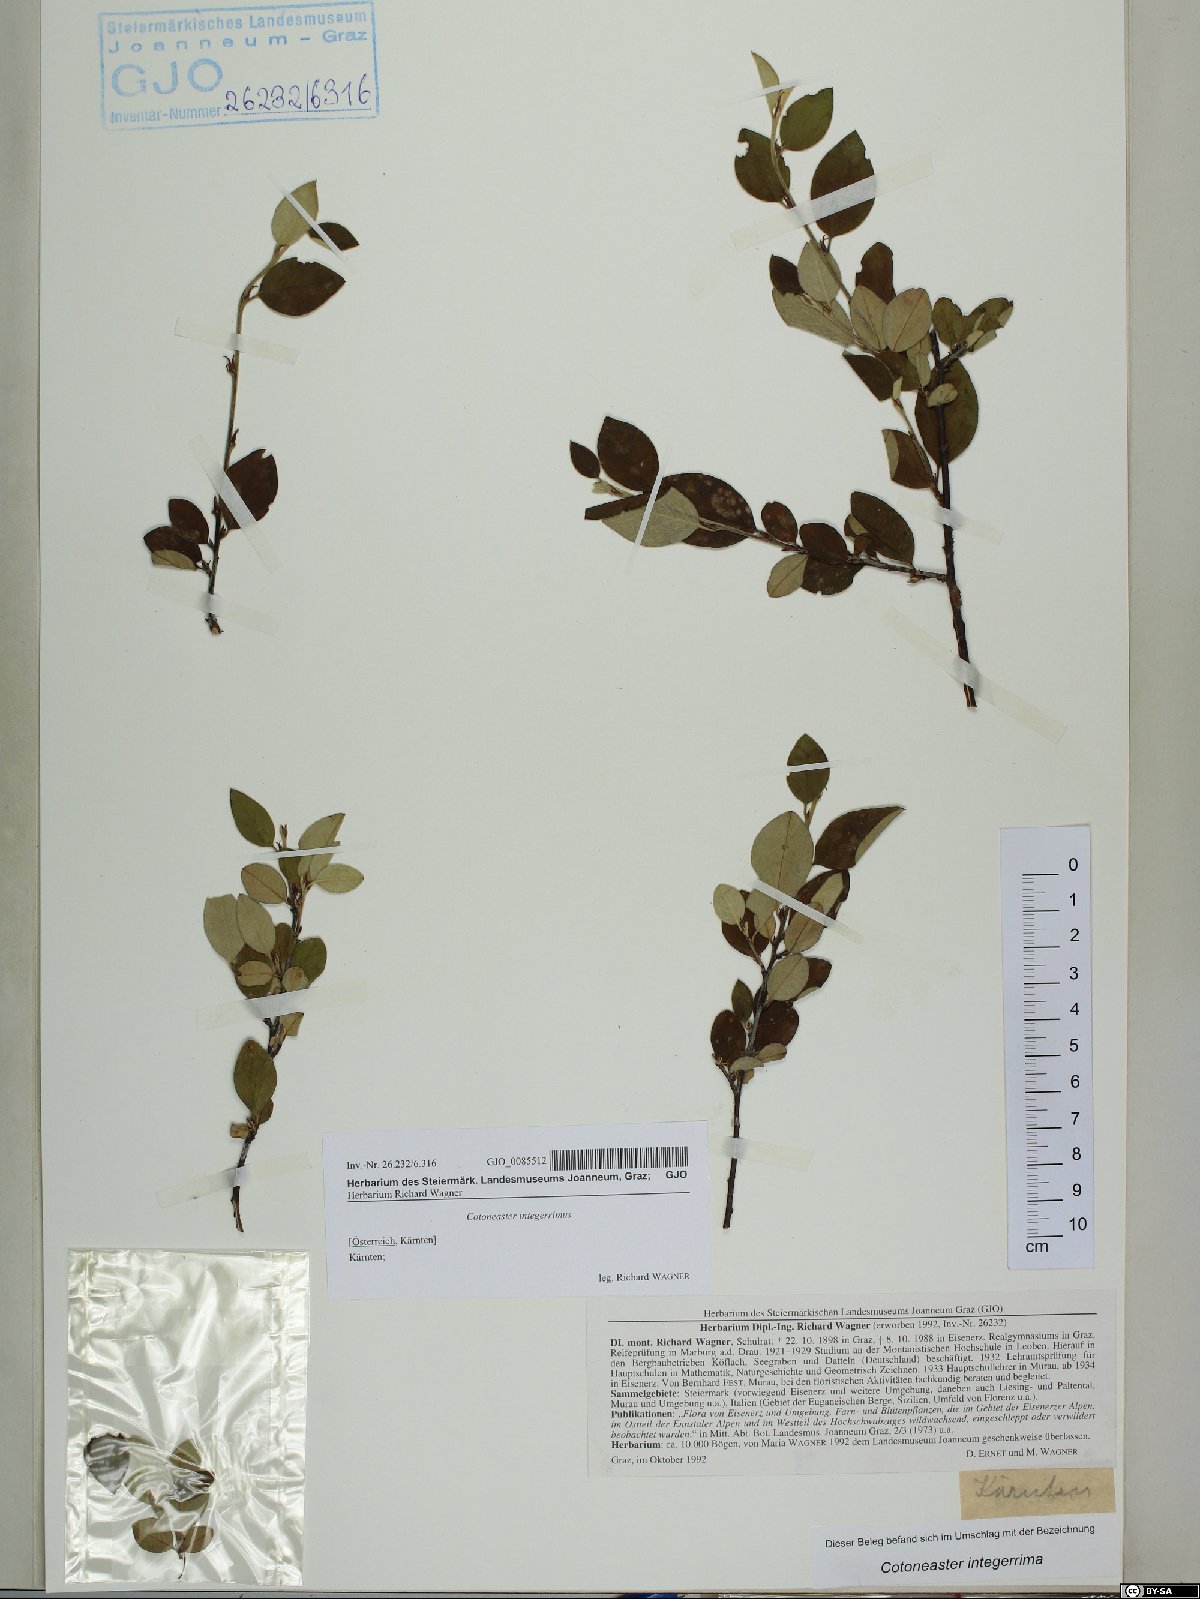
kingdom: Plantae
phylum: Tracheophyta
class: Magnoliopsida
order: Rosales
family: Rosaceae
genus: Cotoneaster
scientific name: Cotoneaster integerrimus
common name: Wild cotoneaster
